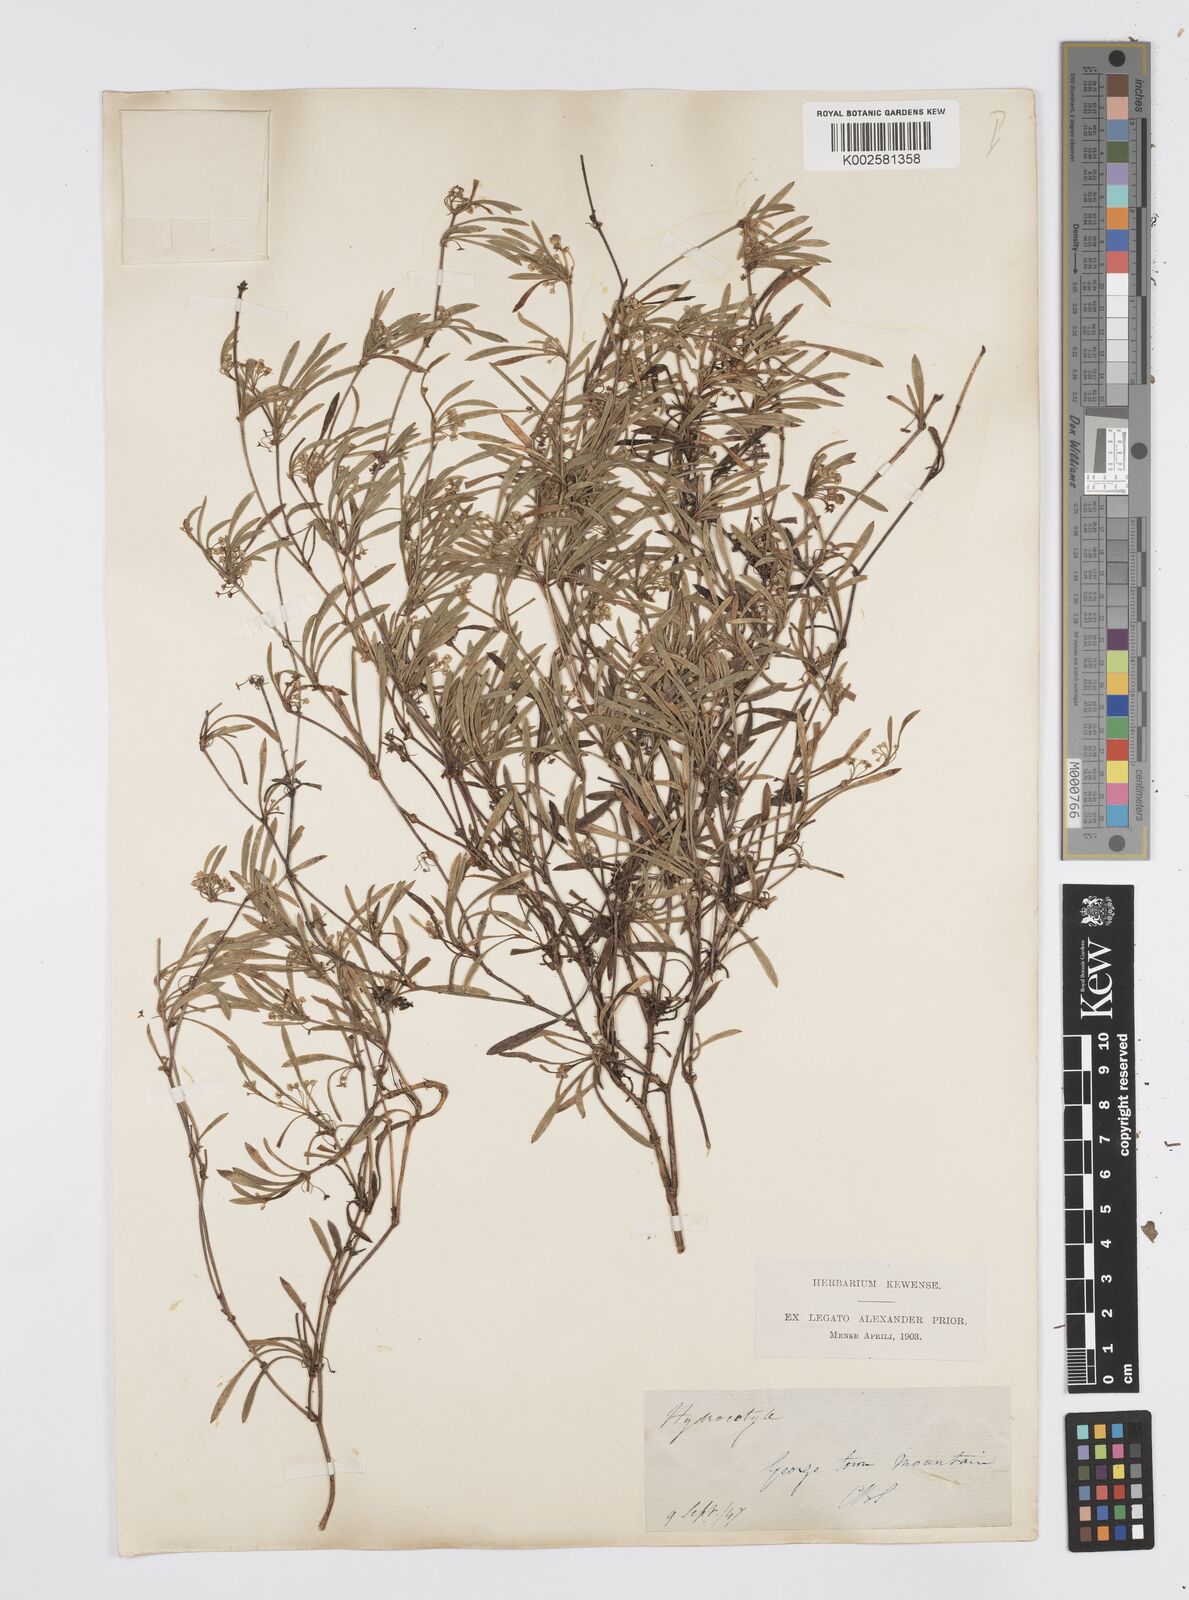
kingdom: Plantae
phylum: Tracheophyta
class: Magnoliopsida
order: Apiales
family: Apiaceae
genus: Centella
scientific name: Centella
